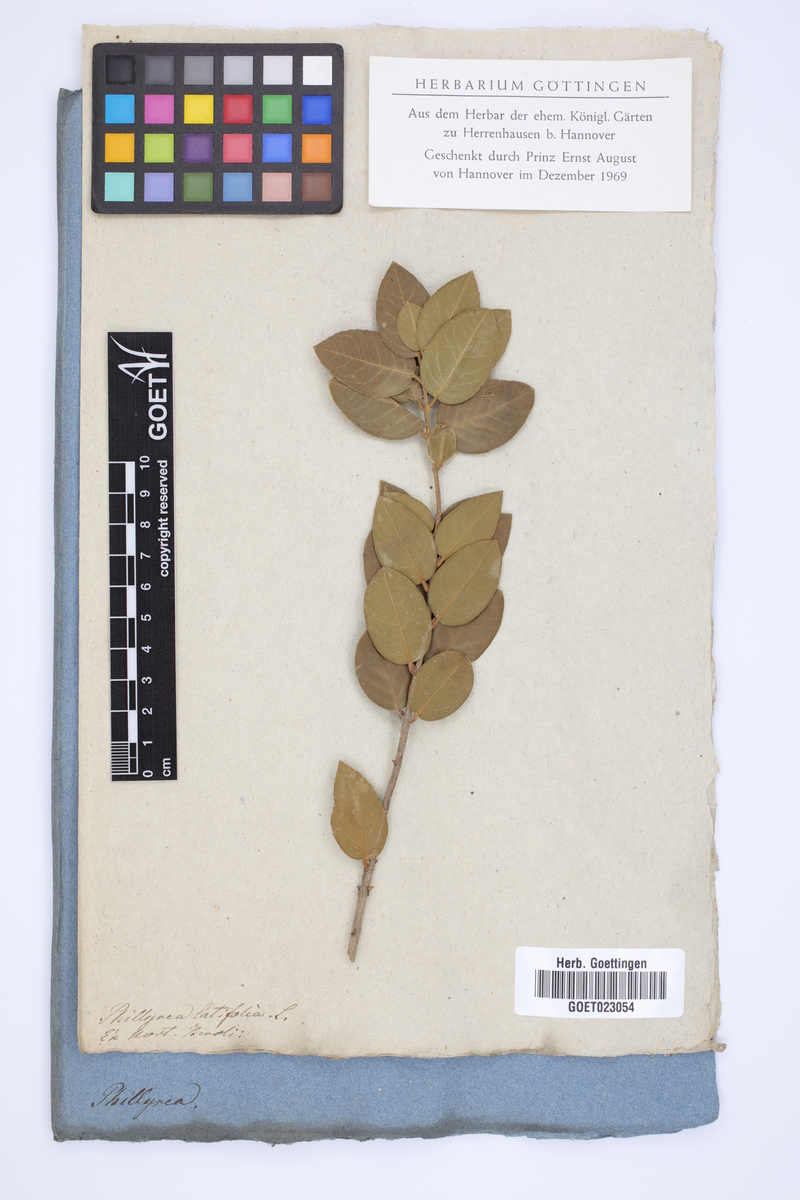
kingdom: Plantae
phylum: Tracheophyta
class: Magnoliopsida
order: Lamiales
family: Oleaceae
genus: Phillyrea
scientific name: Phillyrea latifolia
